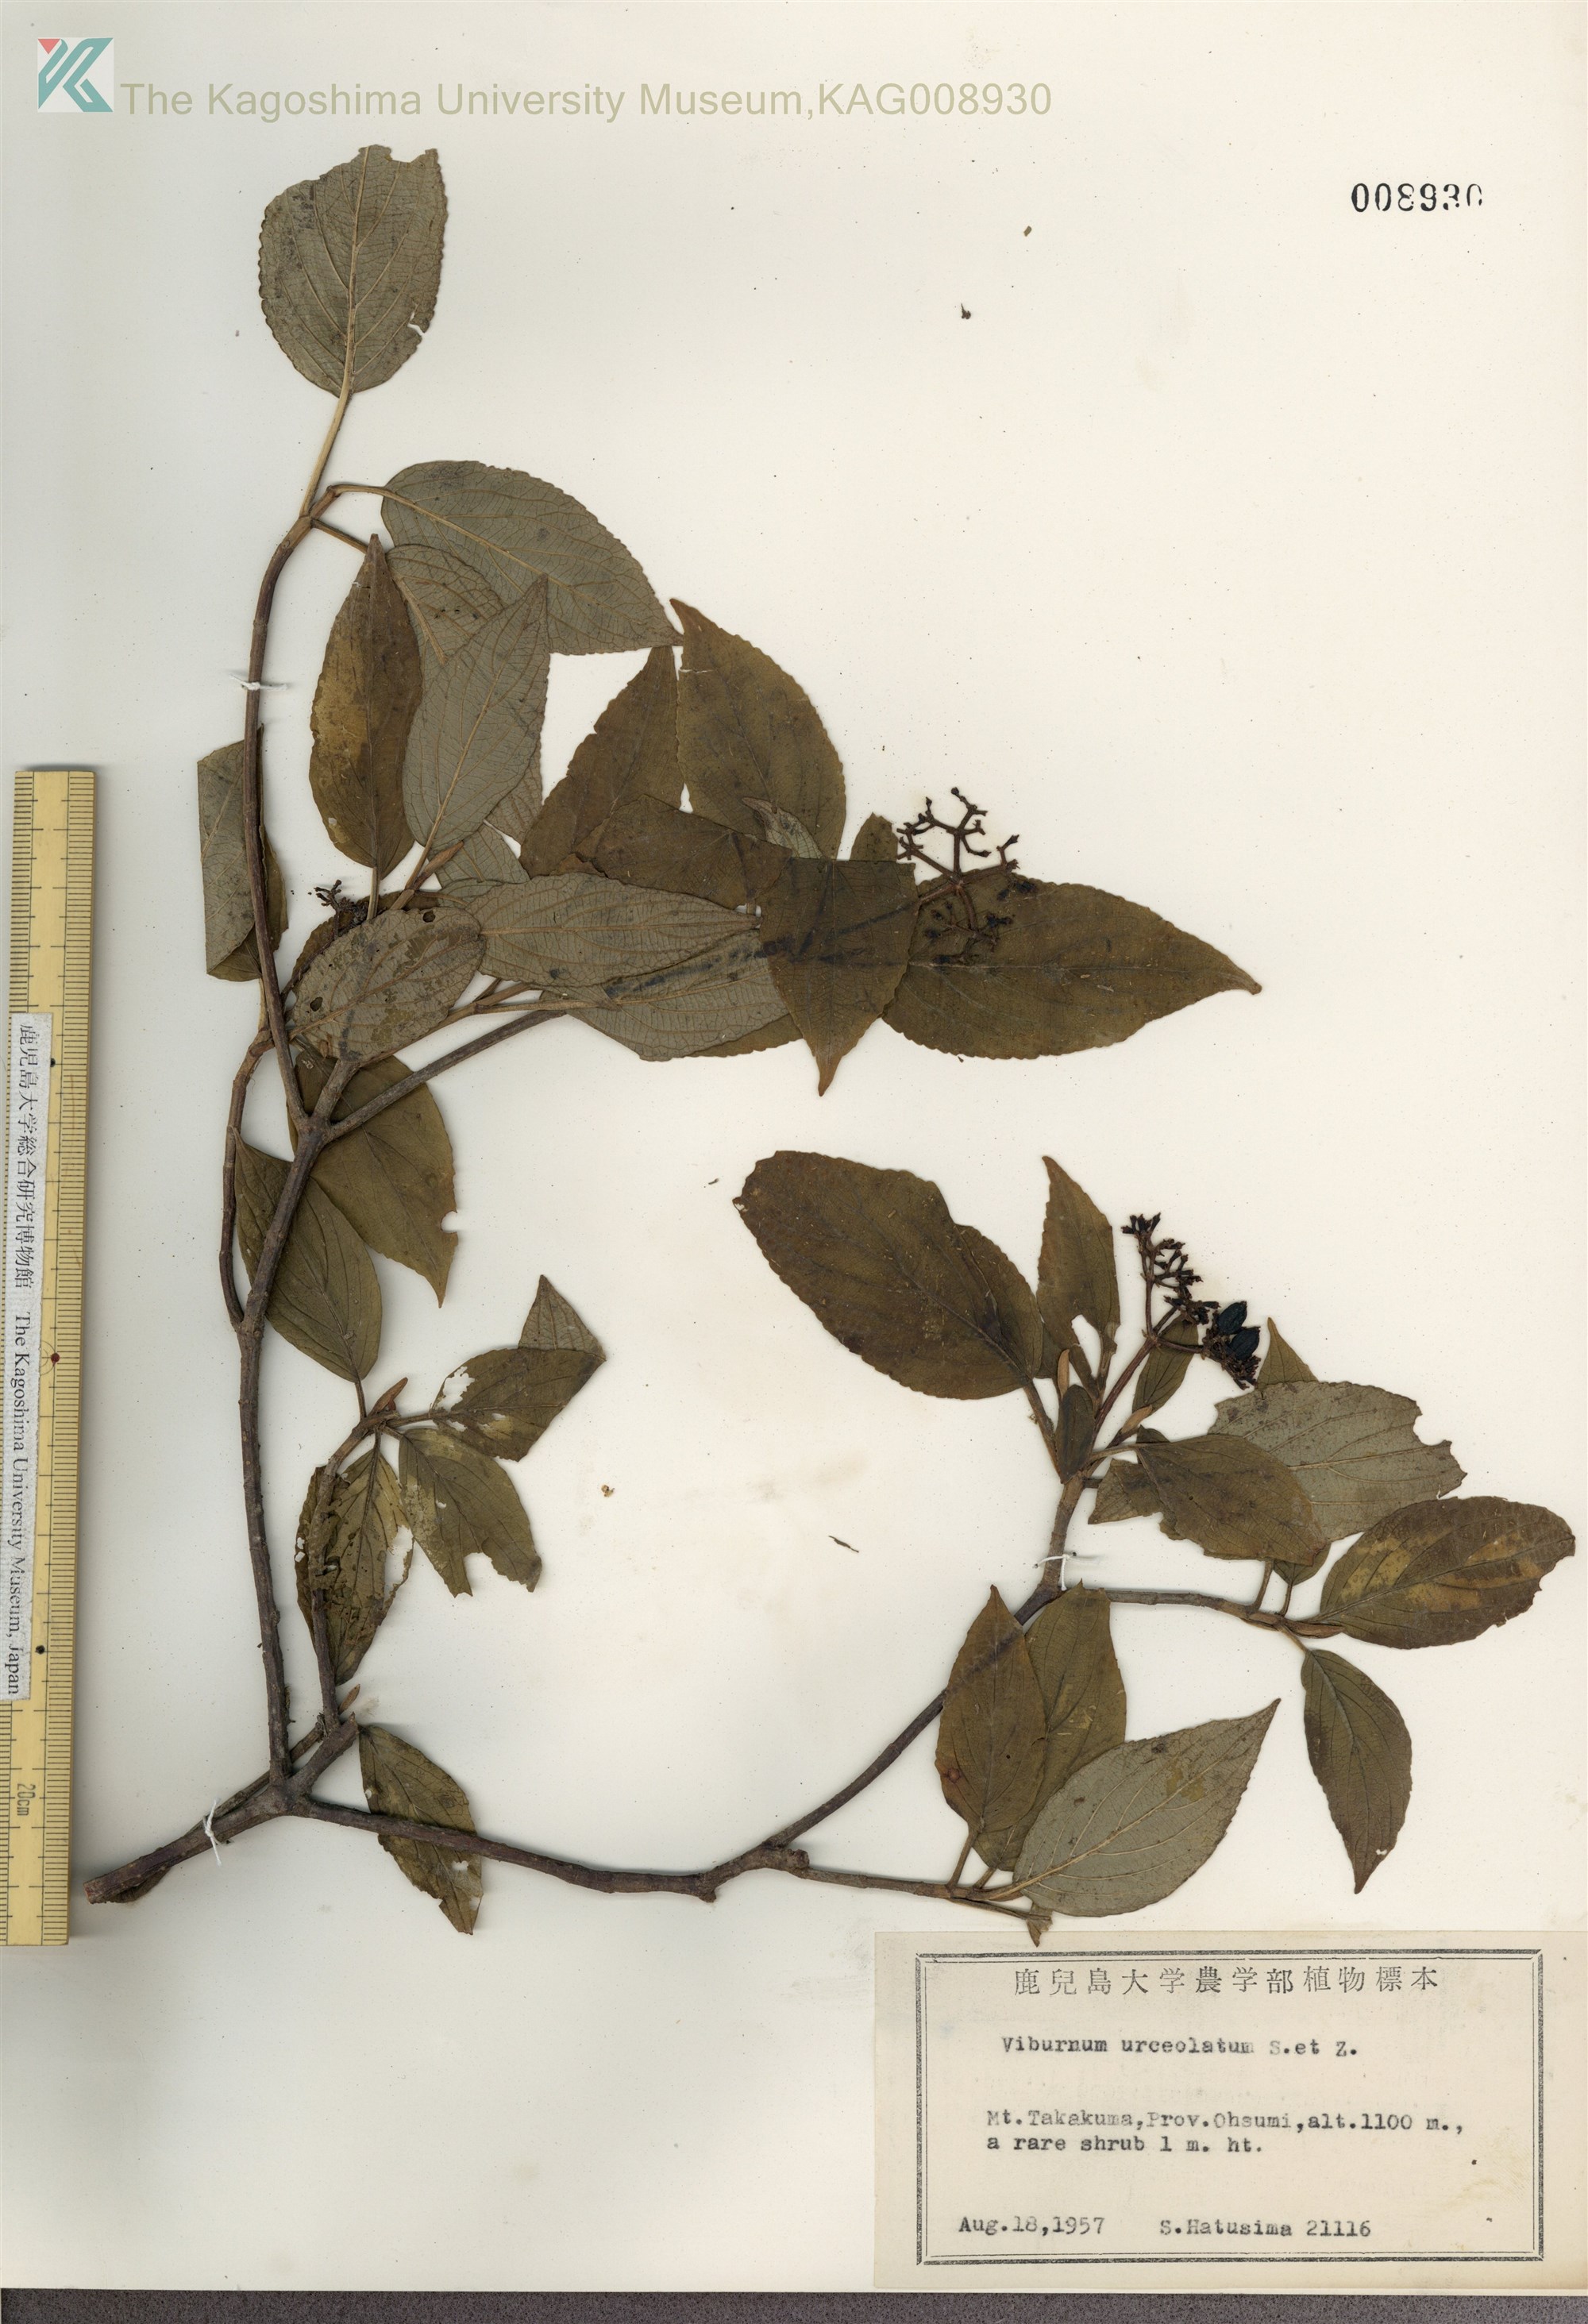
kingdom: Plantae
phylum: Tracheophyta
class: Magnoliopsida
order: Dipsacales
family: Viburnaceae
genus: Viburnum
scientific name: Viburnum urceolatum
